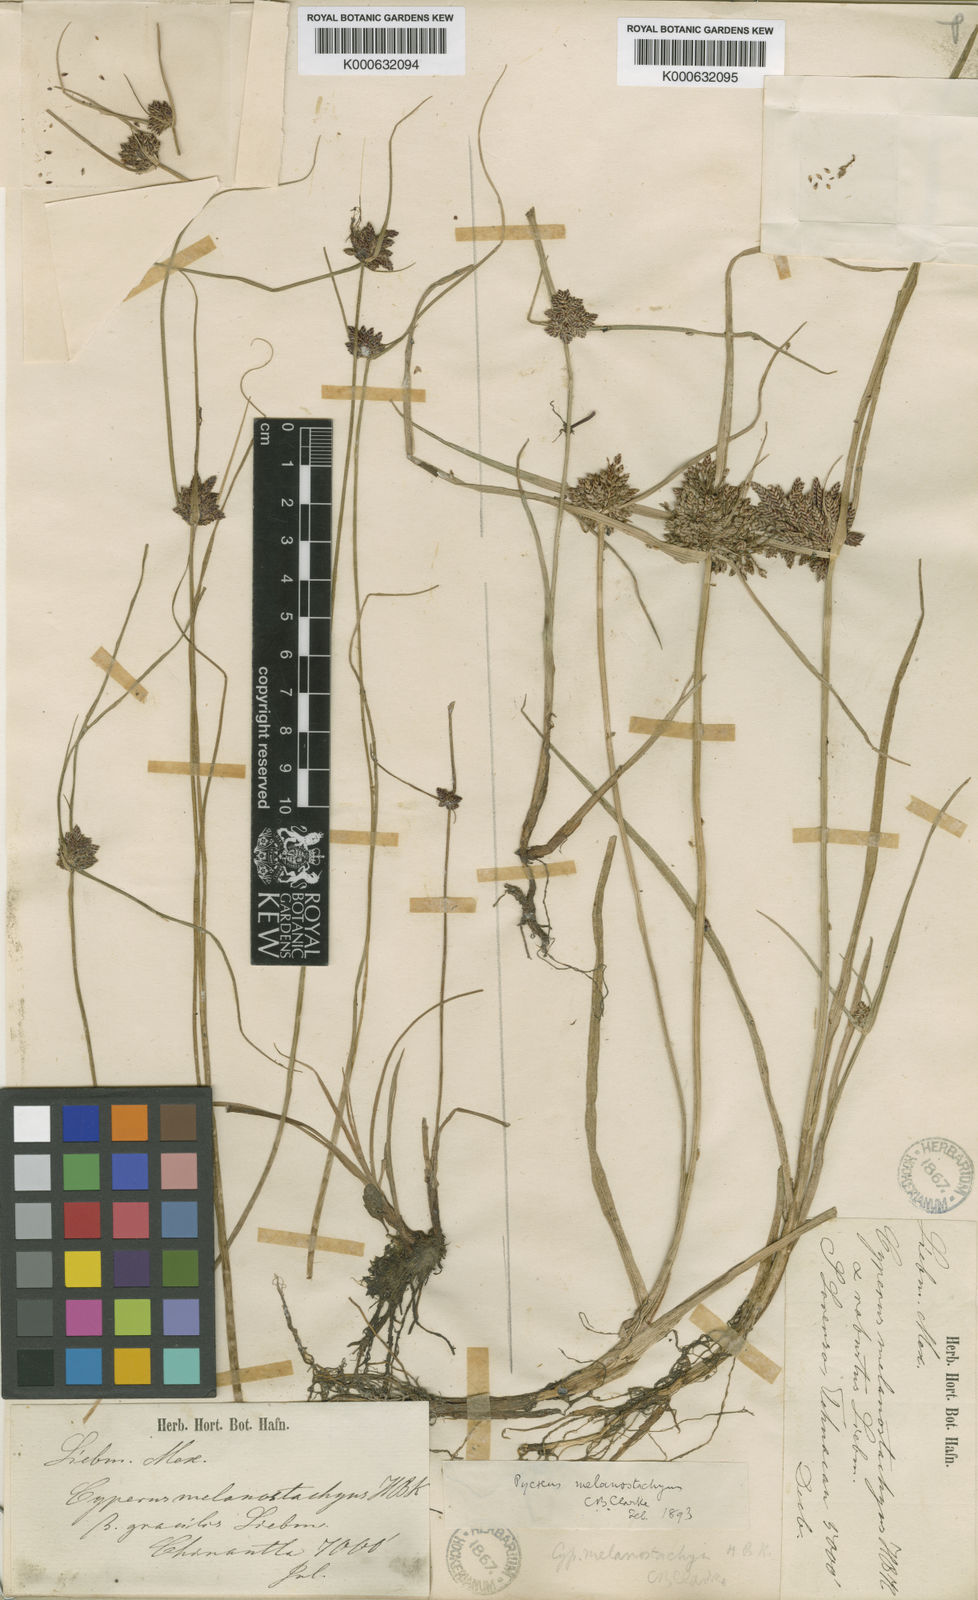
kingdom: Plantae
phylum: Tracheophyta
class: Liliopsida
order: Poales
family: Cyperaceae
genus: Cyperus
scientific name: Cyperus melanostachyus
